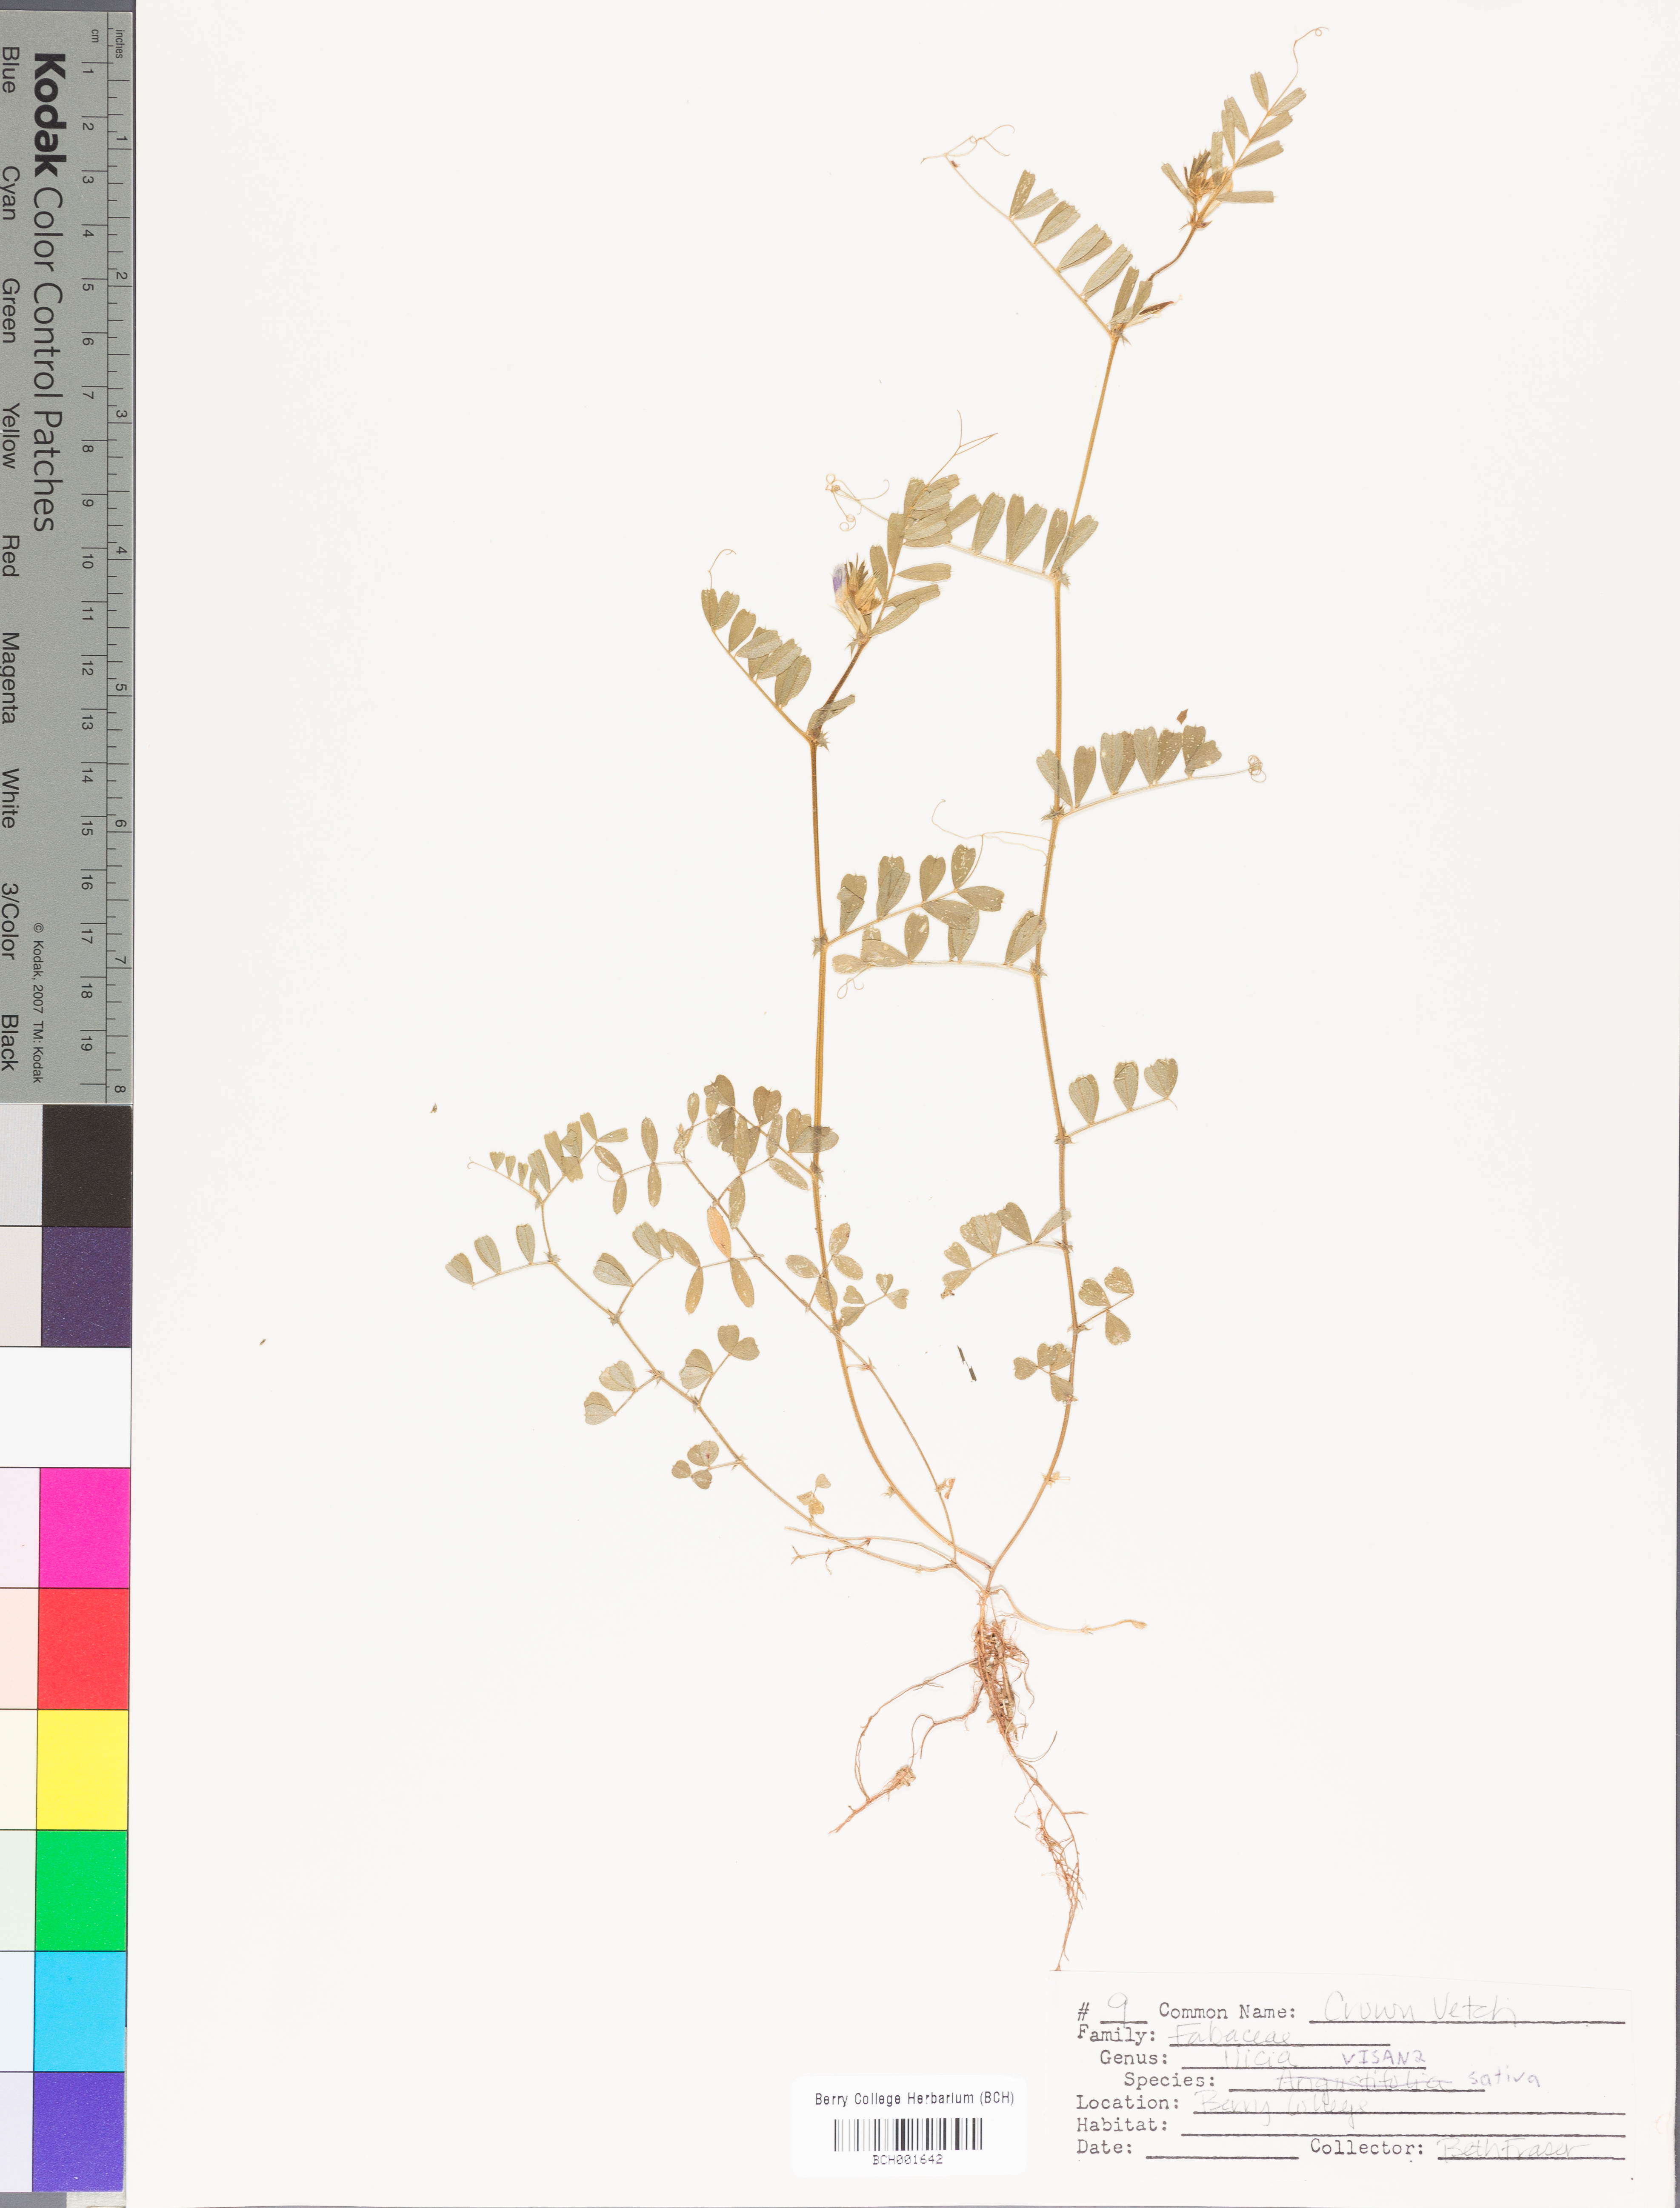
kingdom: Plantae
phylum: Tracheophyta
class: Magnoliopsida
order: Fabales
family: Fabaceae
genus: Vicia
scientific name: Vicia sativa
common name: Garden vetch
